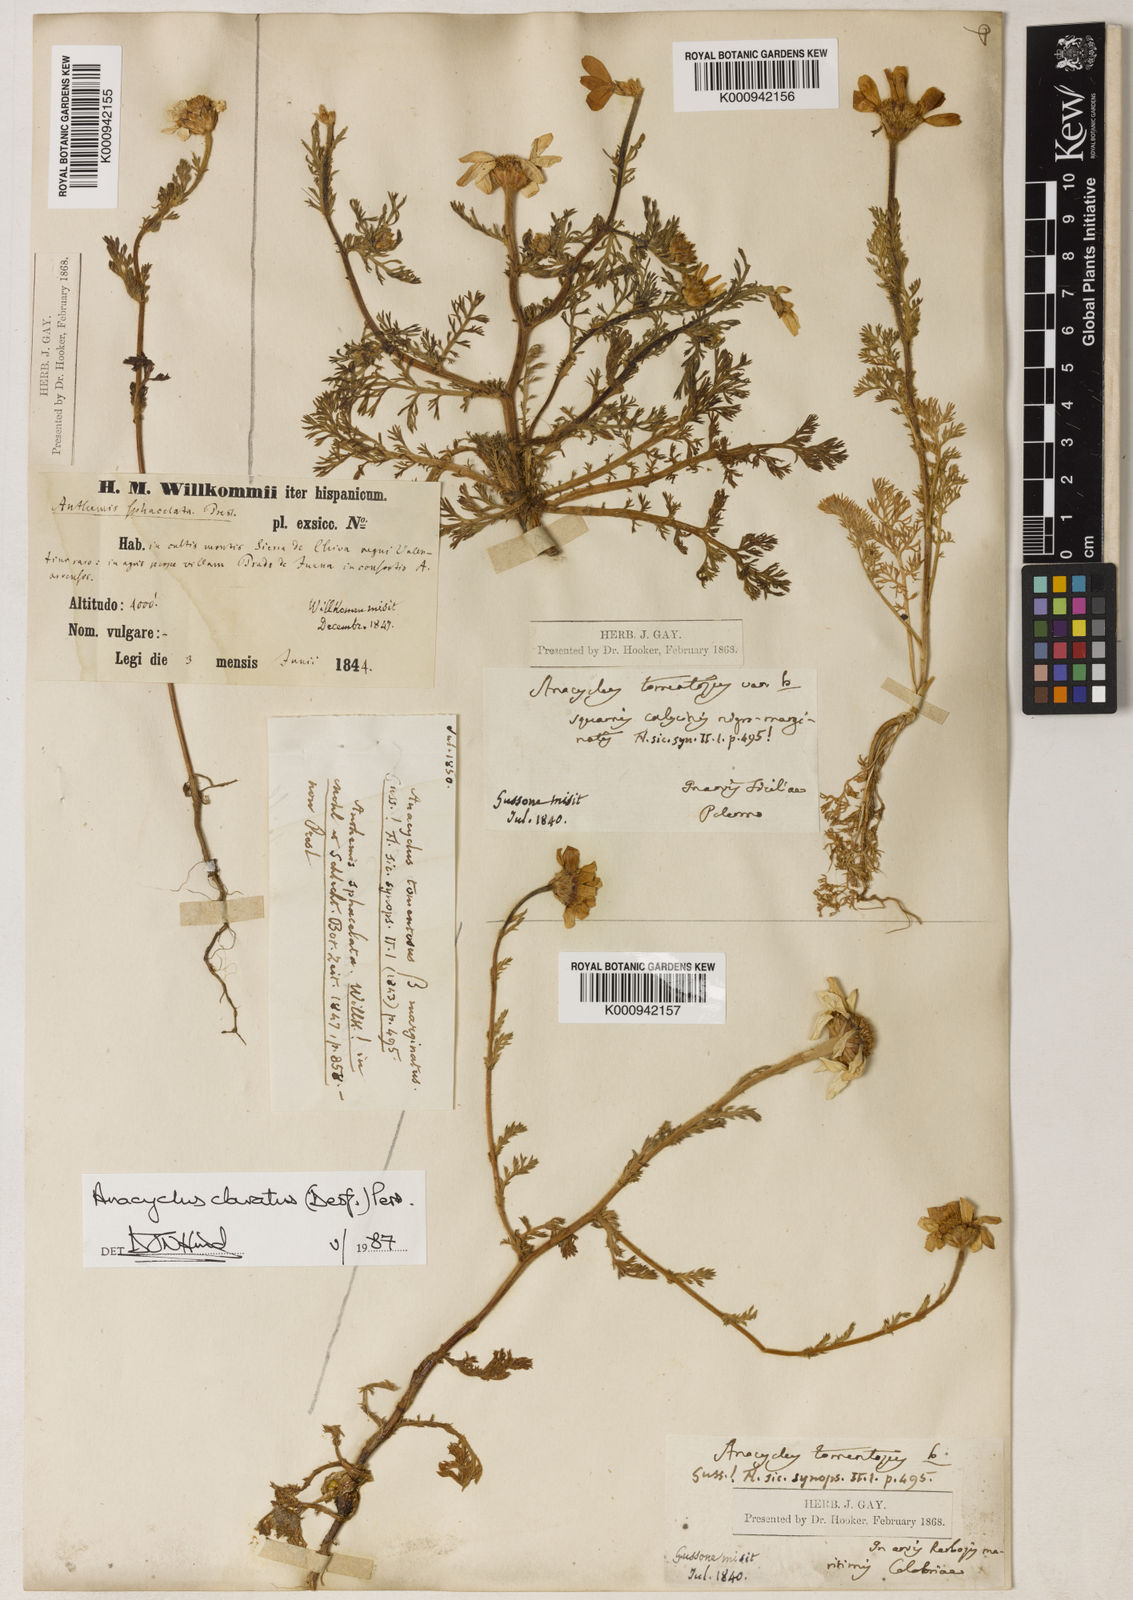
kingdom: Plantae
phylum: Tracheophyta
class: Magnoliopsida
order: Asterales
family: Asteraceae
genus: Anacyclus
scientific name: Anacyclus clavatus
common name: Whitebuttons
